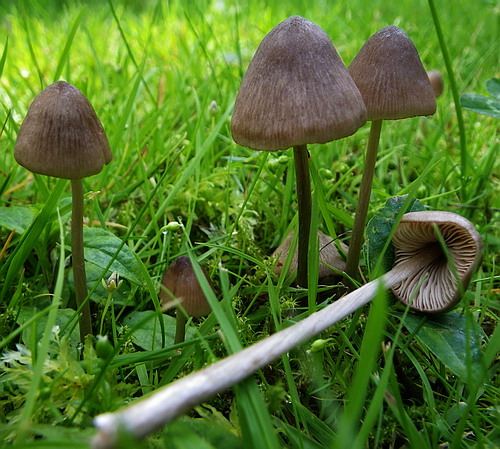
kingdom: Fungi
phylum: Basidiomycota
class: Agaricomycetes
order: Agaricales
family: Entolomataceae
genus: Entoloma
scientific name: Entoloma conferendum
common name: stjernesporet rødblad
